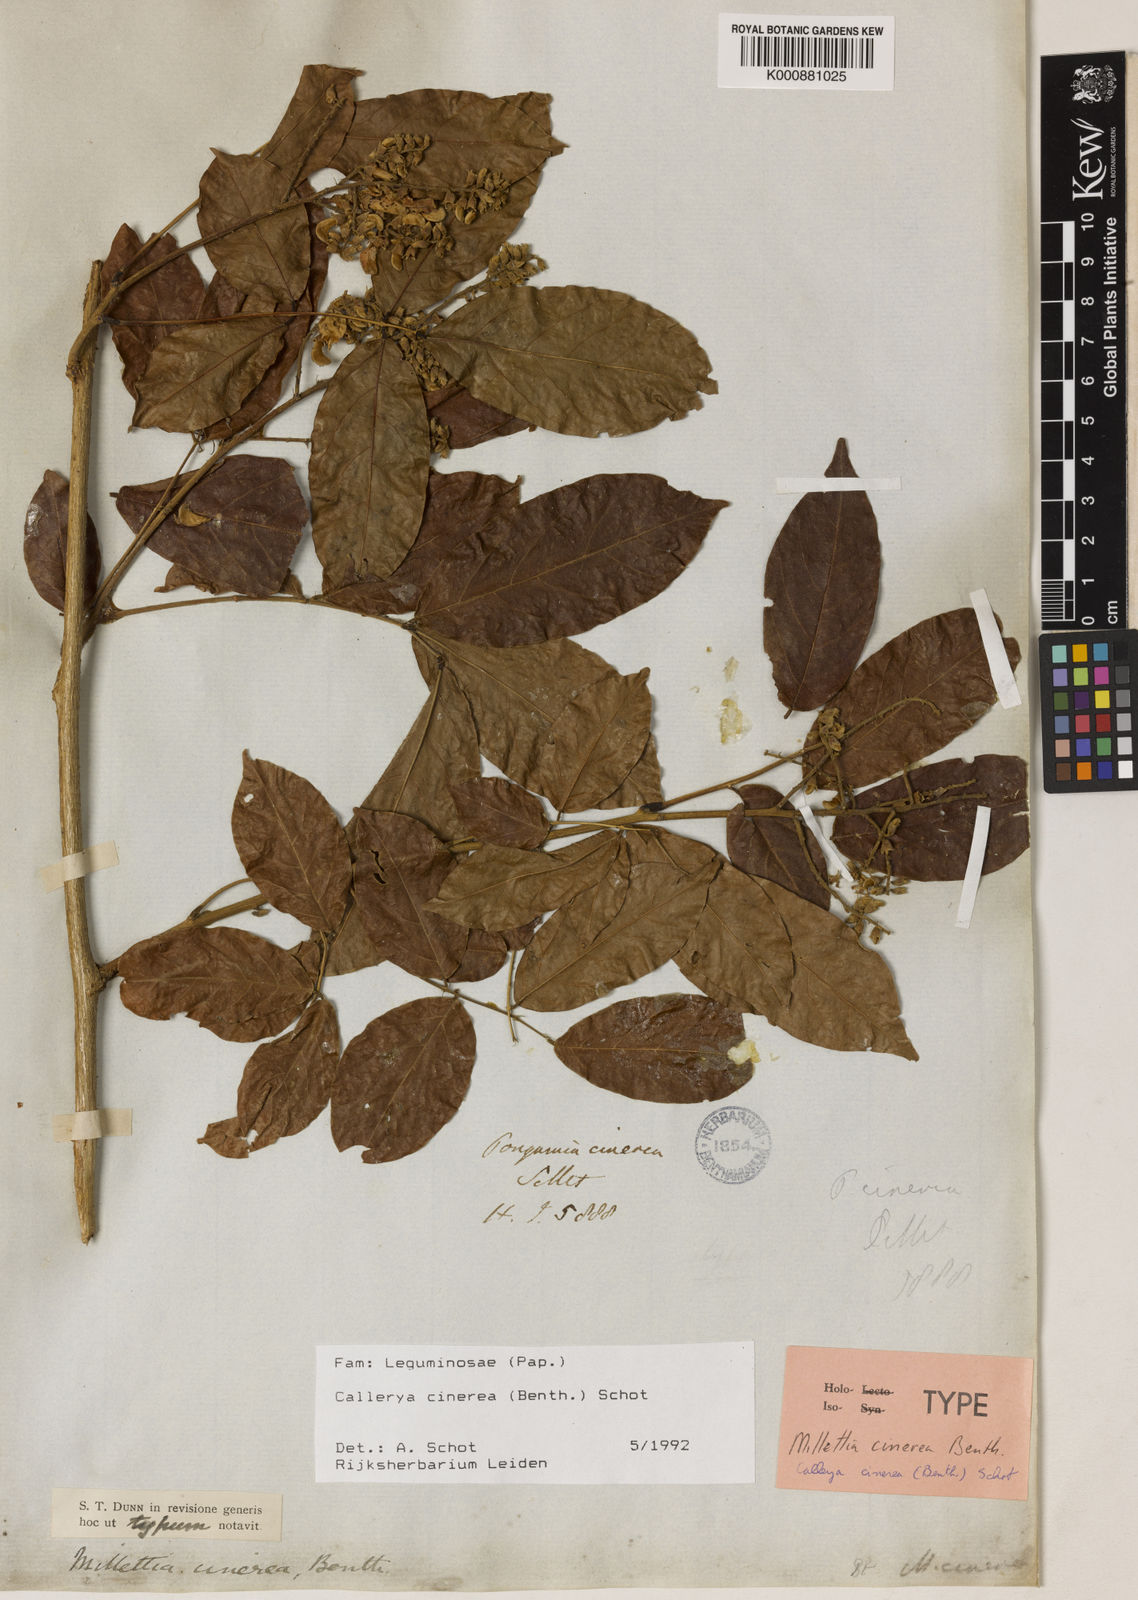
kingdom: Plantae
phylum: Tracheophyta
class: Magnoliopsida
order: Fabales
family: Fabaceae
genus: Callerya
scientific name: Callerya cinerea
